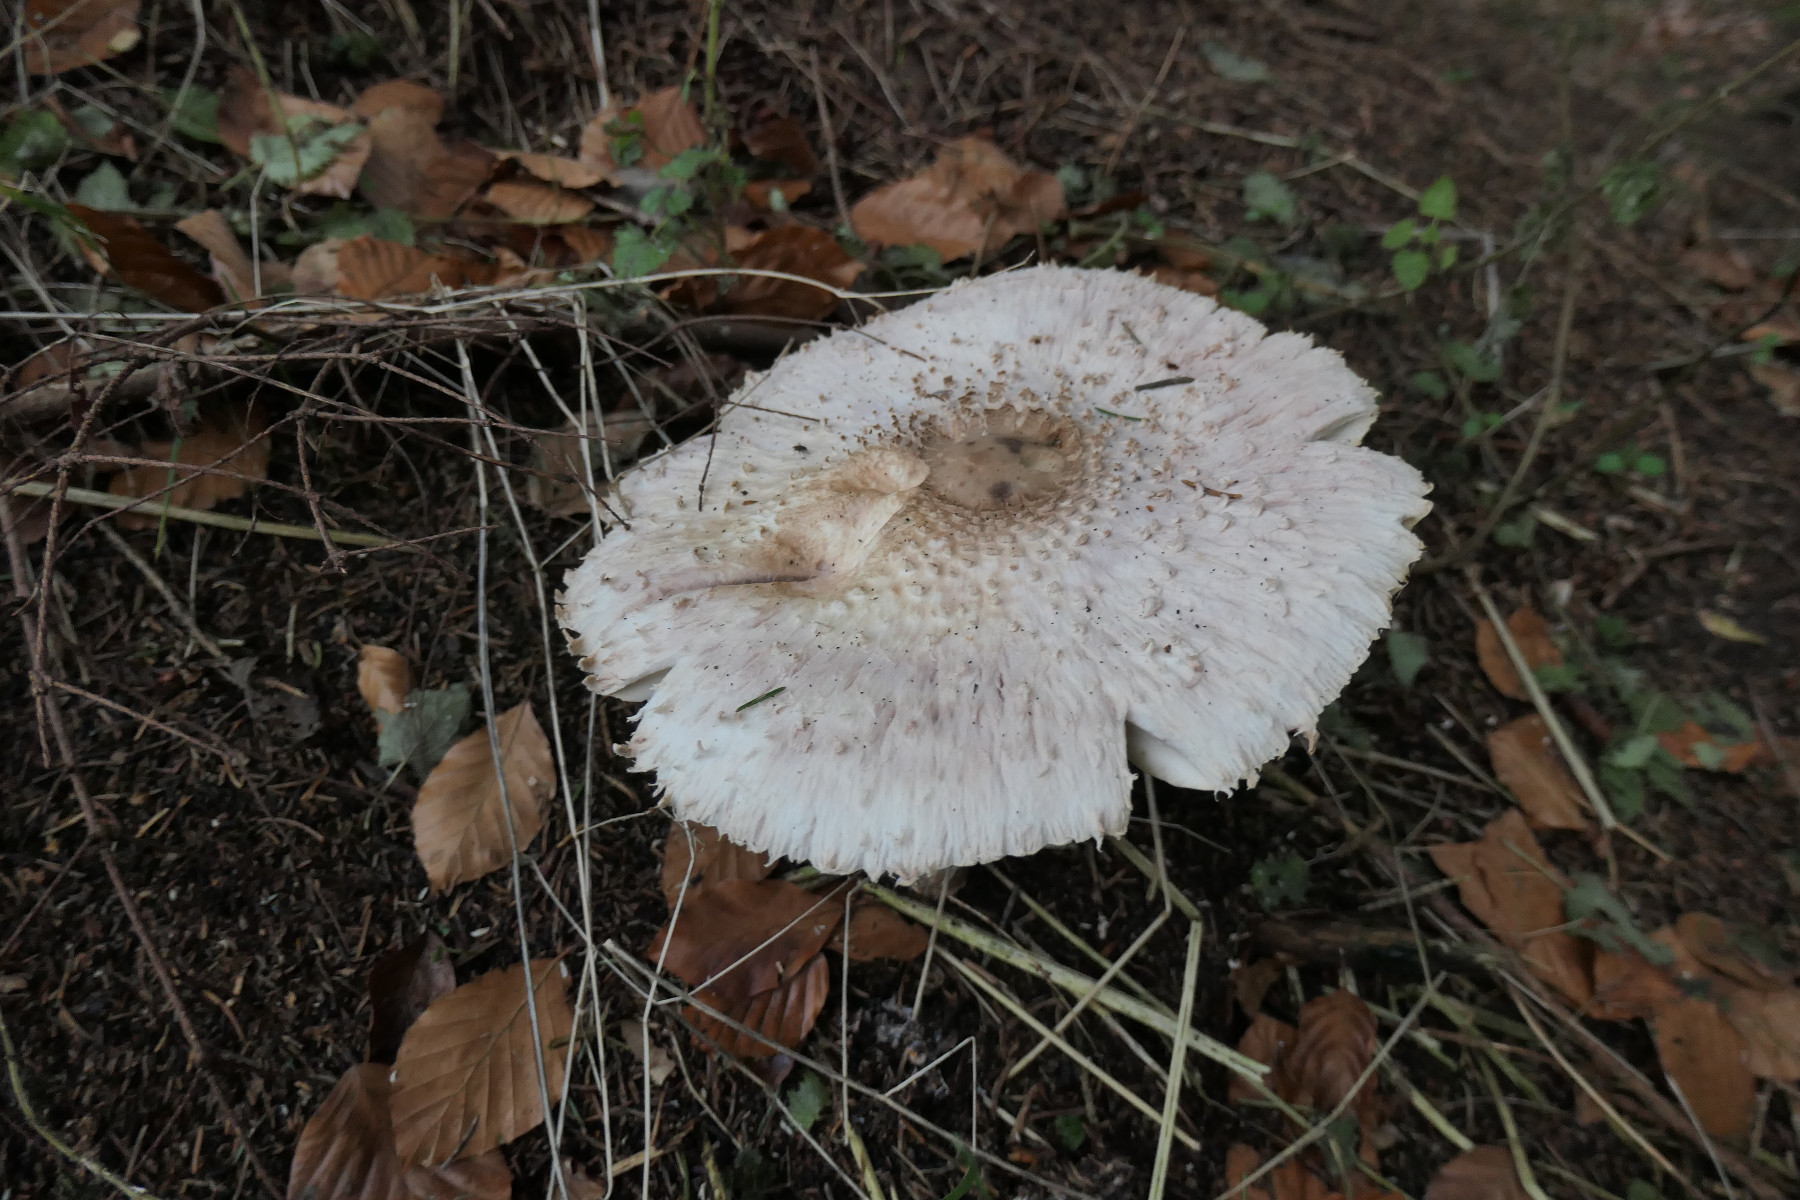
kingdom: Fungi
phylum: Basidiomycota
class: Agaricomycetes
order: Agaricales
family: Agaricaceae
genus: Leucoagaricus
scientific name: Leucoagaricus nympharum
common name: gran-silkehat
